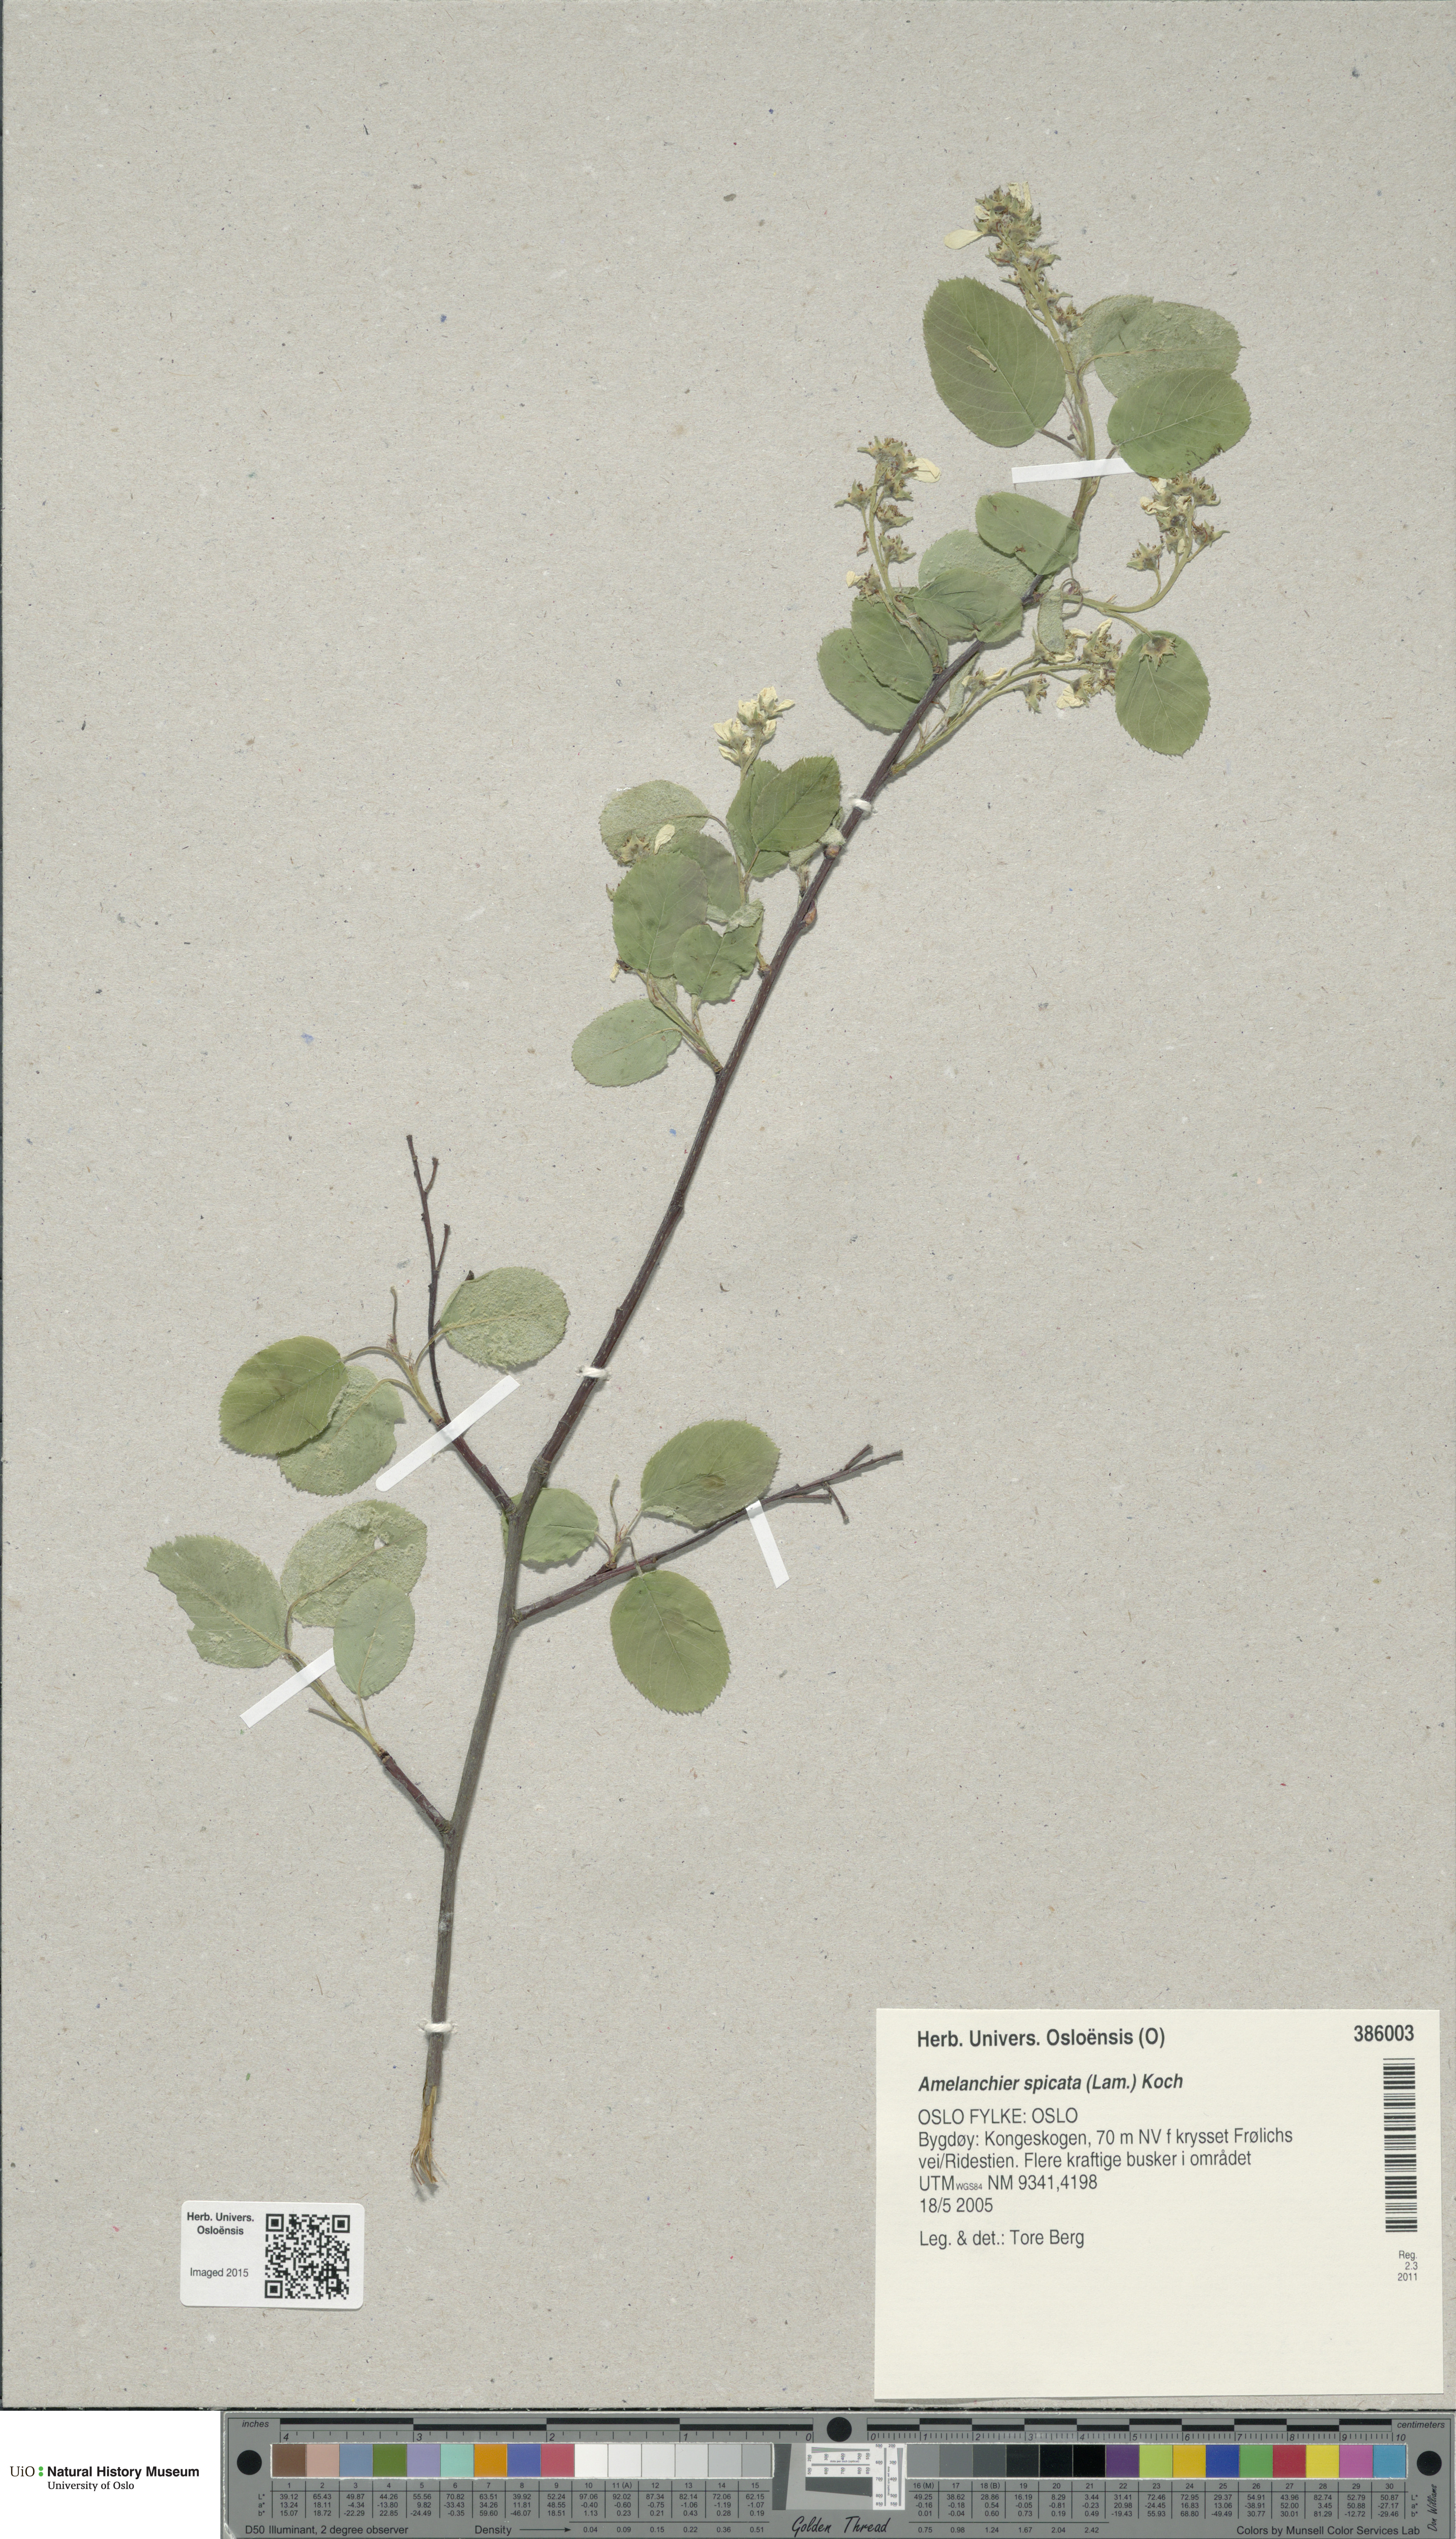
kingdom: Plantae
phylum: Tracheophyta
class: Magnoliopsida
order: Rosales
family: Rosaceae
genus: Amelanchier
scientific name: Amelanchier humilis
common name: Low juneberry
